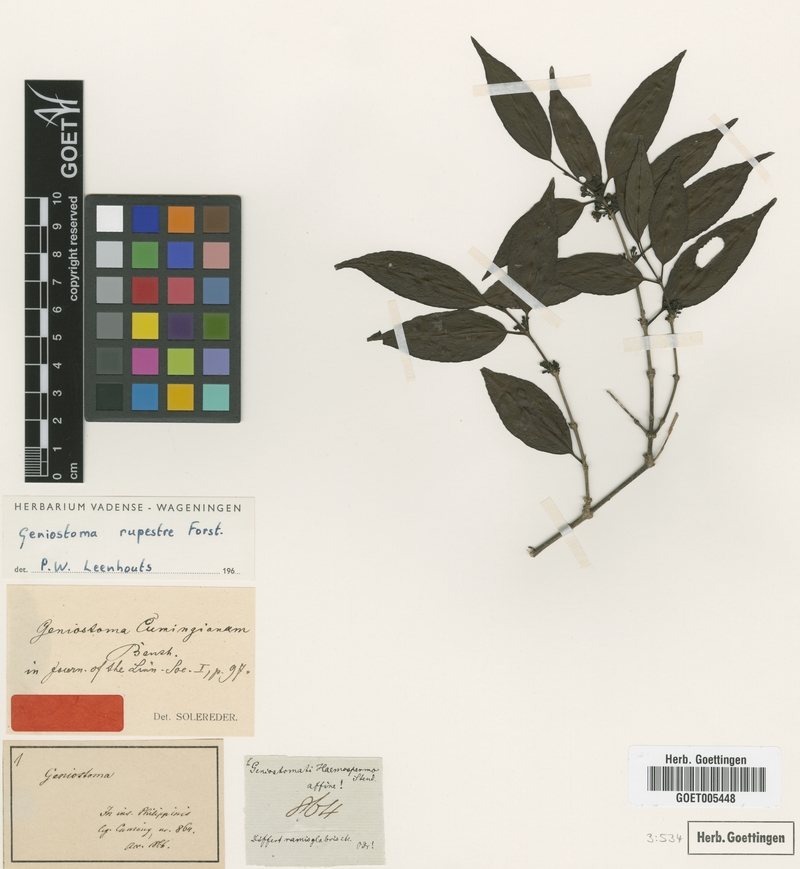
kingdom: Plantae
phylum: Tracheophyta
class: Magnoliopsida
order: Gentianales
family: Loganiaceae
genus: Geniostoma
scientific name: Geniostoma rupestre
